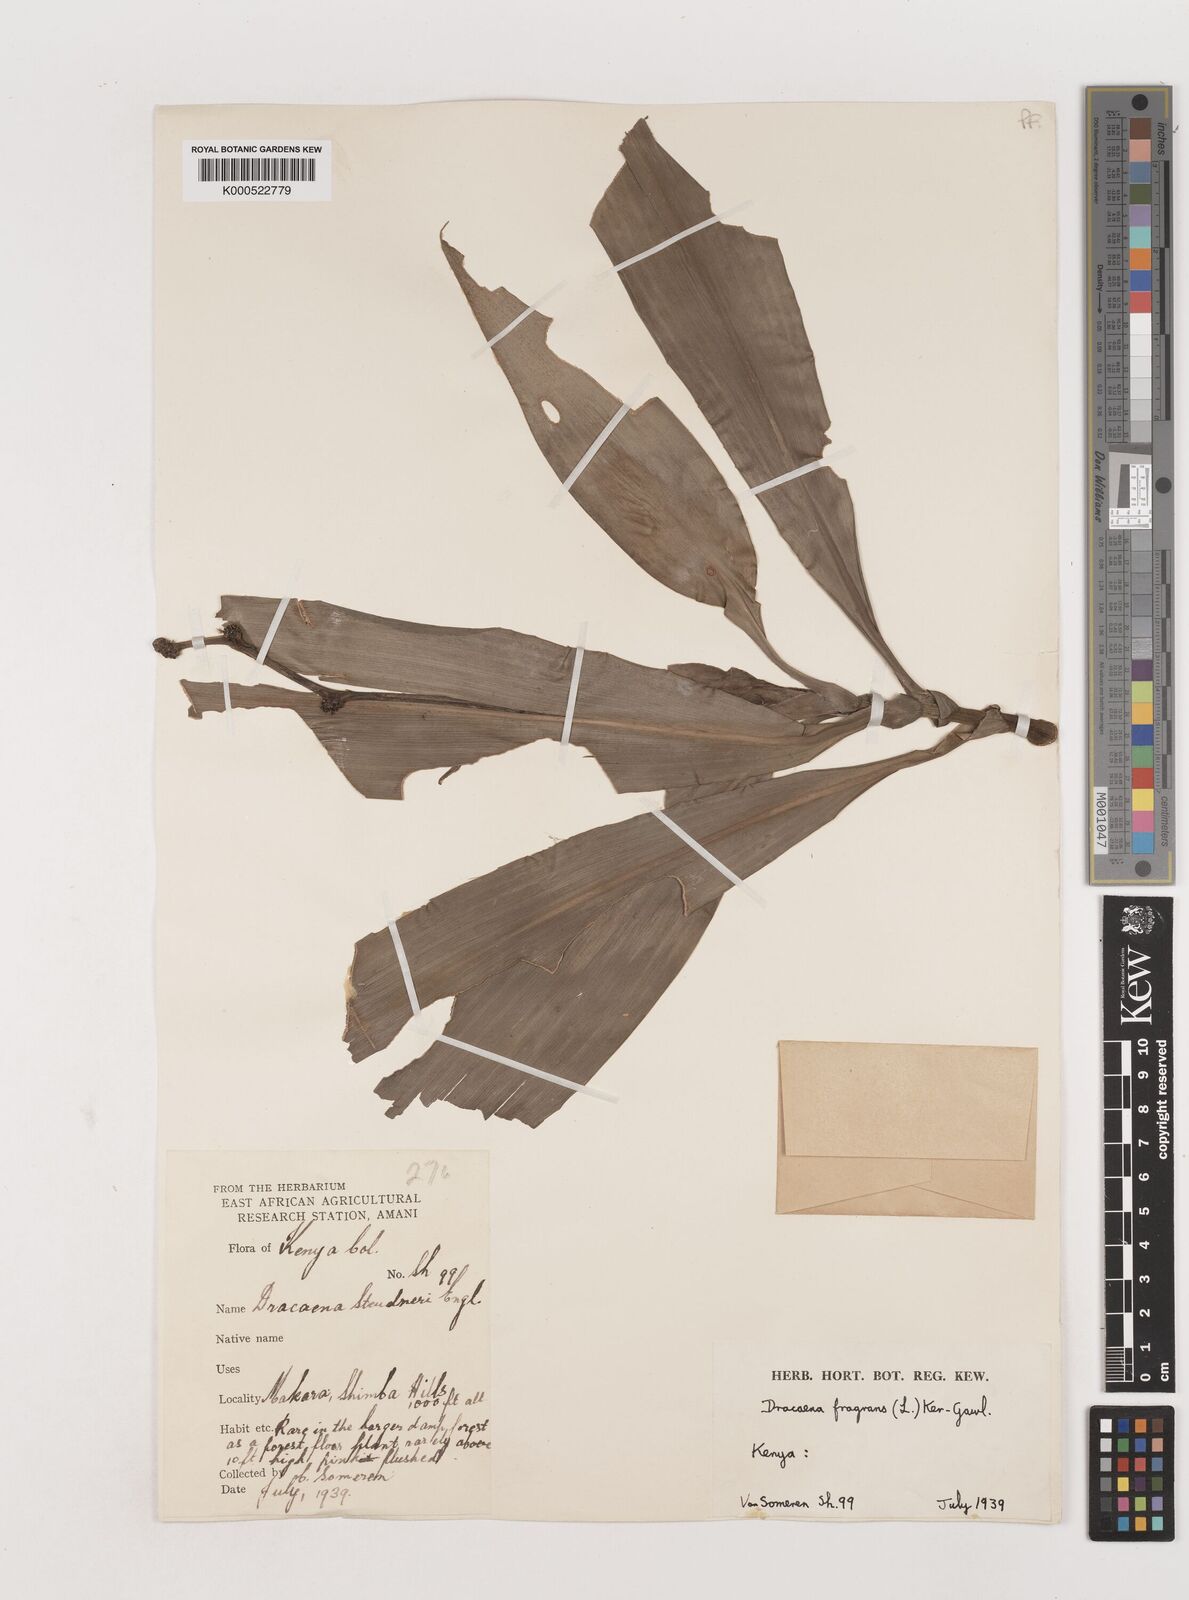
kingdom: Plantae
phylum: Tracheophyta
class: Liliopsida
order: Asparagales
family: Asparagaceae
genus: Dracaena
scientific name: Dracaena fragrans
